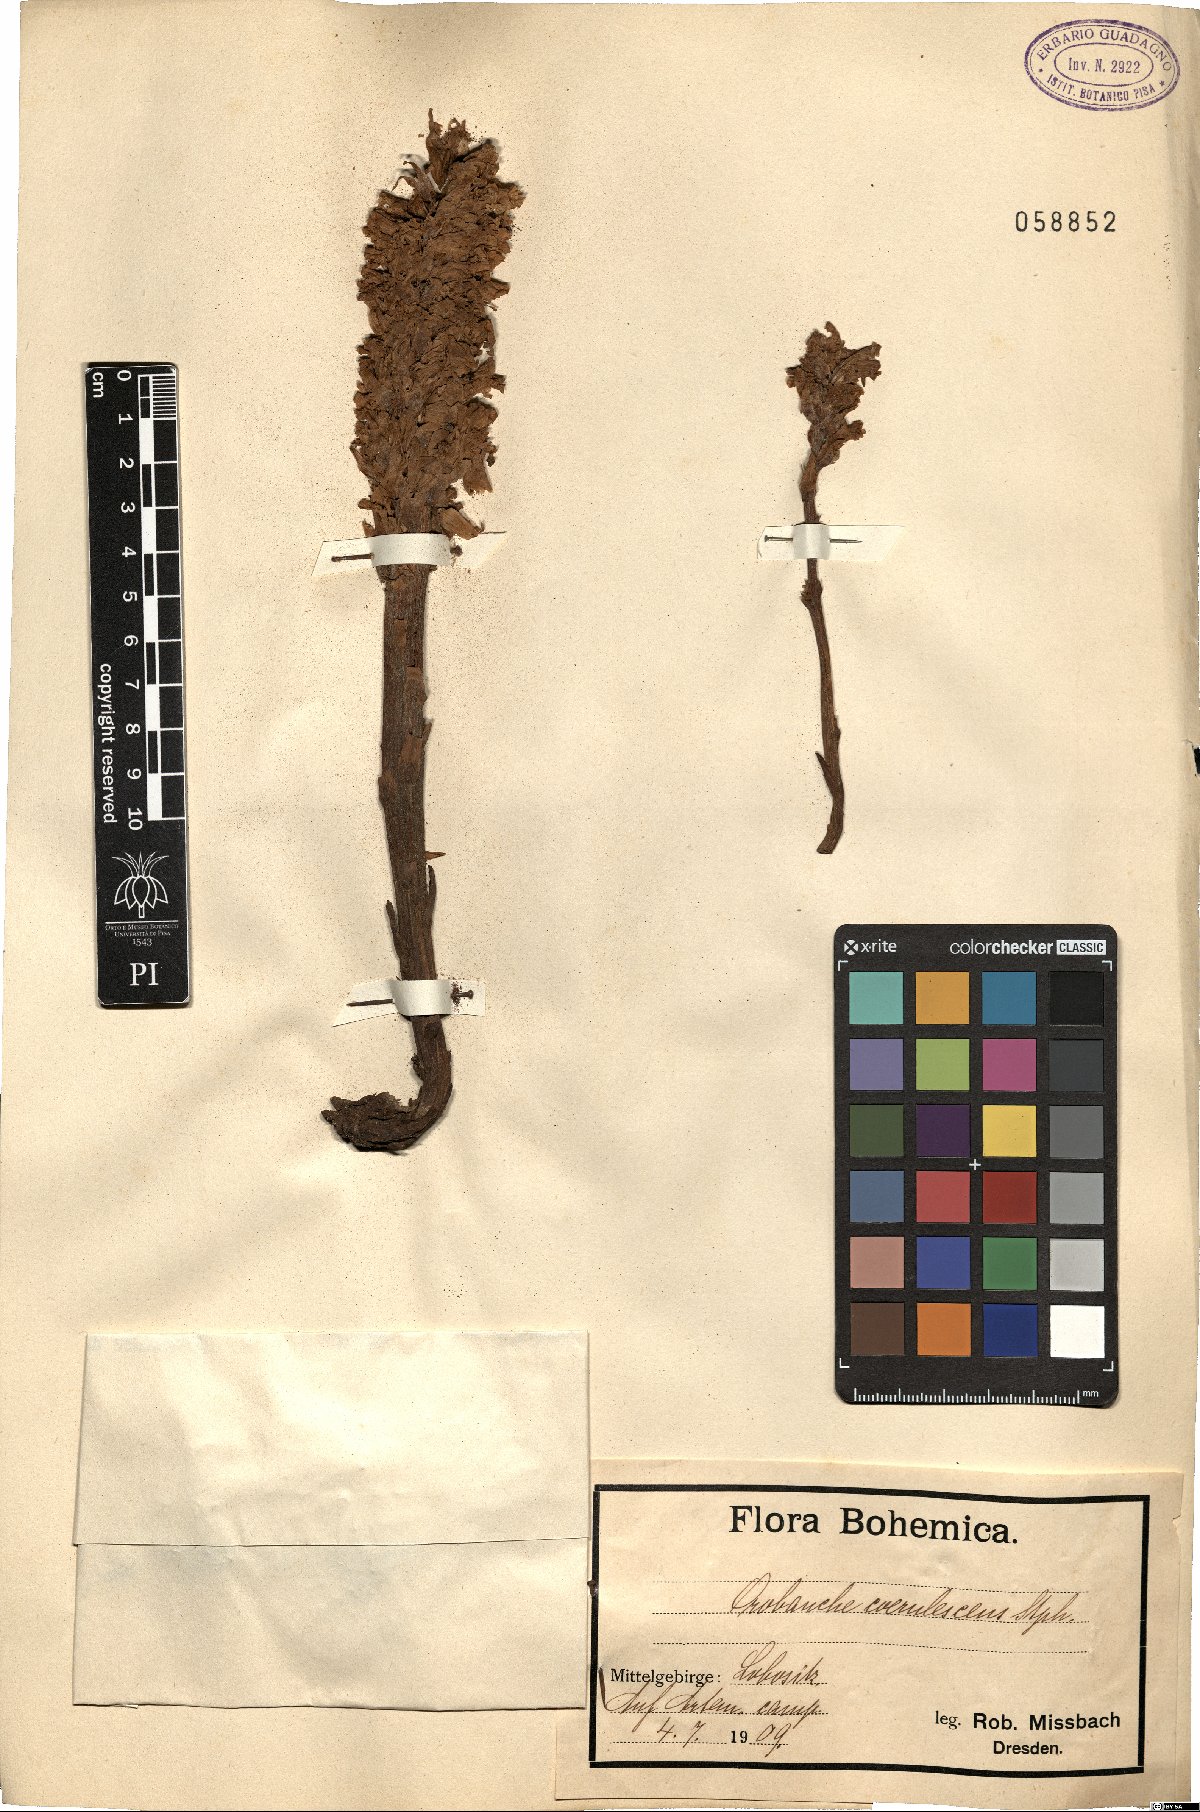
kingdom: Plantae
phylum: Tracheophyta
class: Magnoliopsida
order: Lamiales
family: Orobanchaceae
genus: Orobanche
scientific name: Orobanche coerulescens
